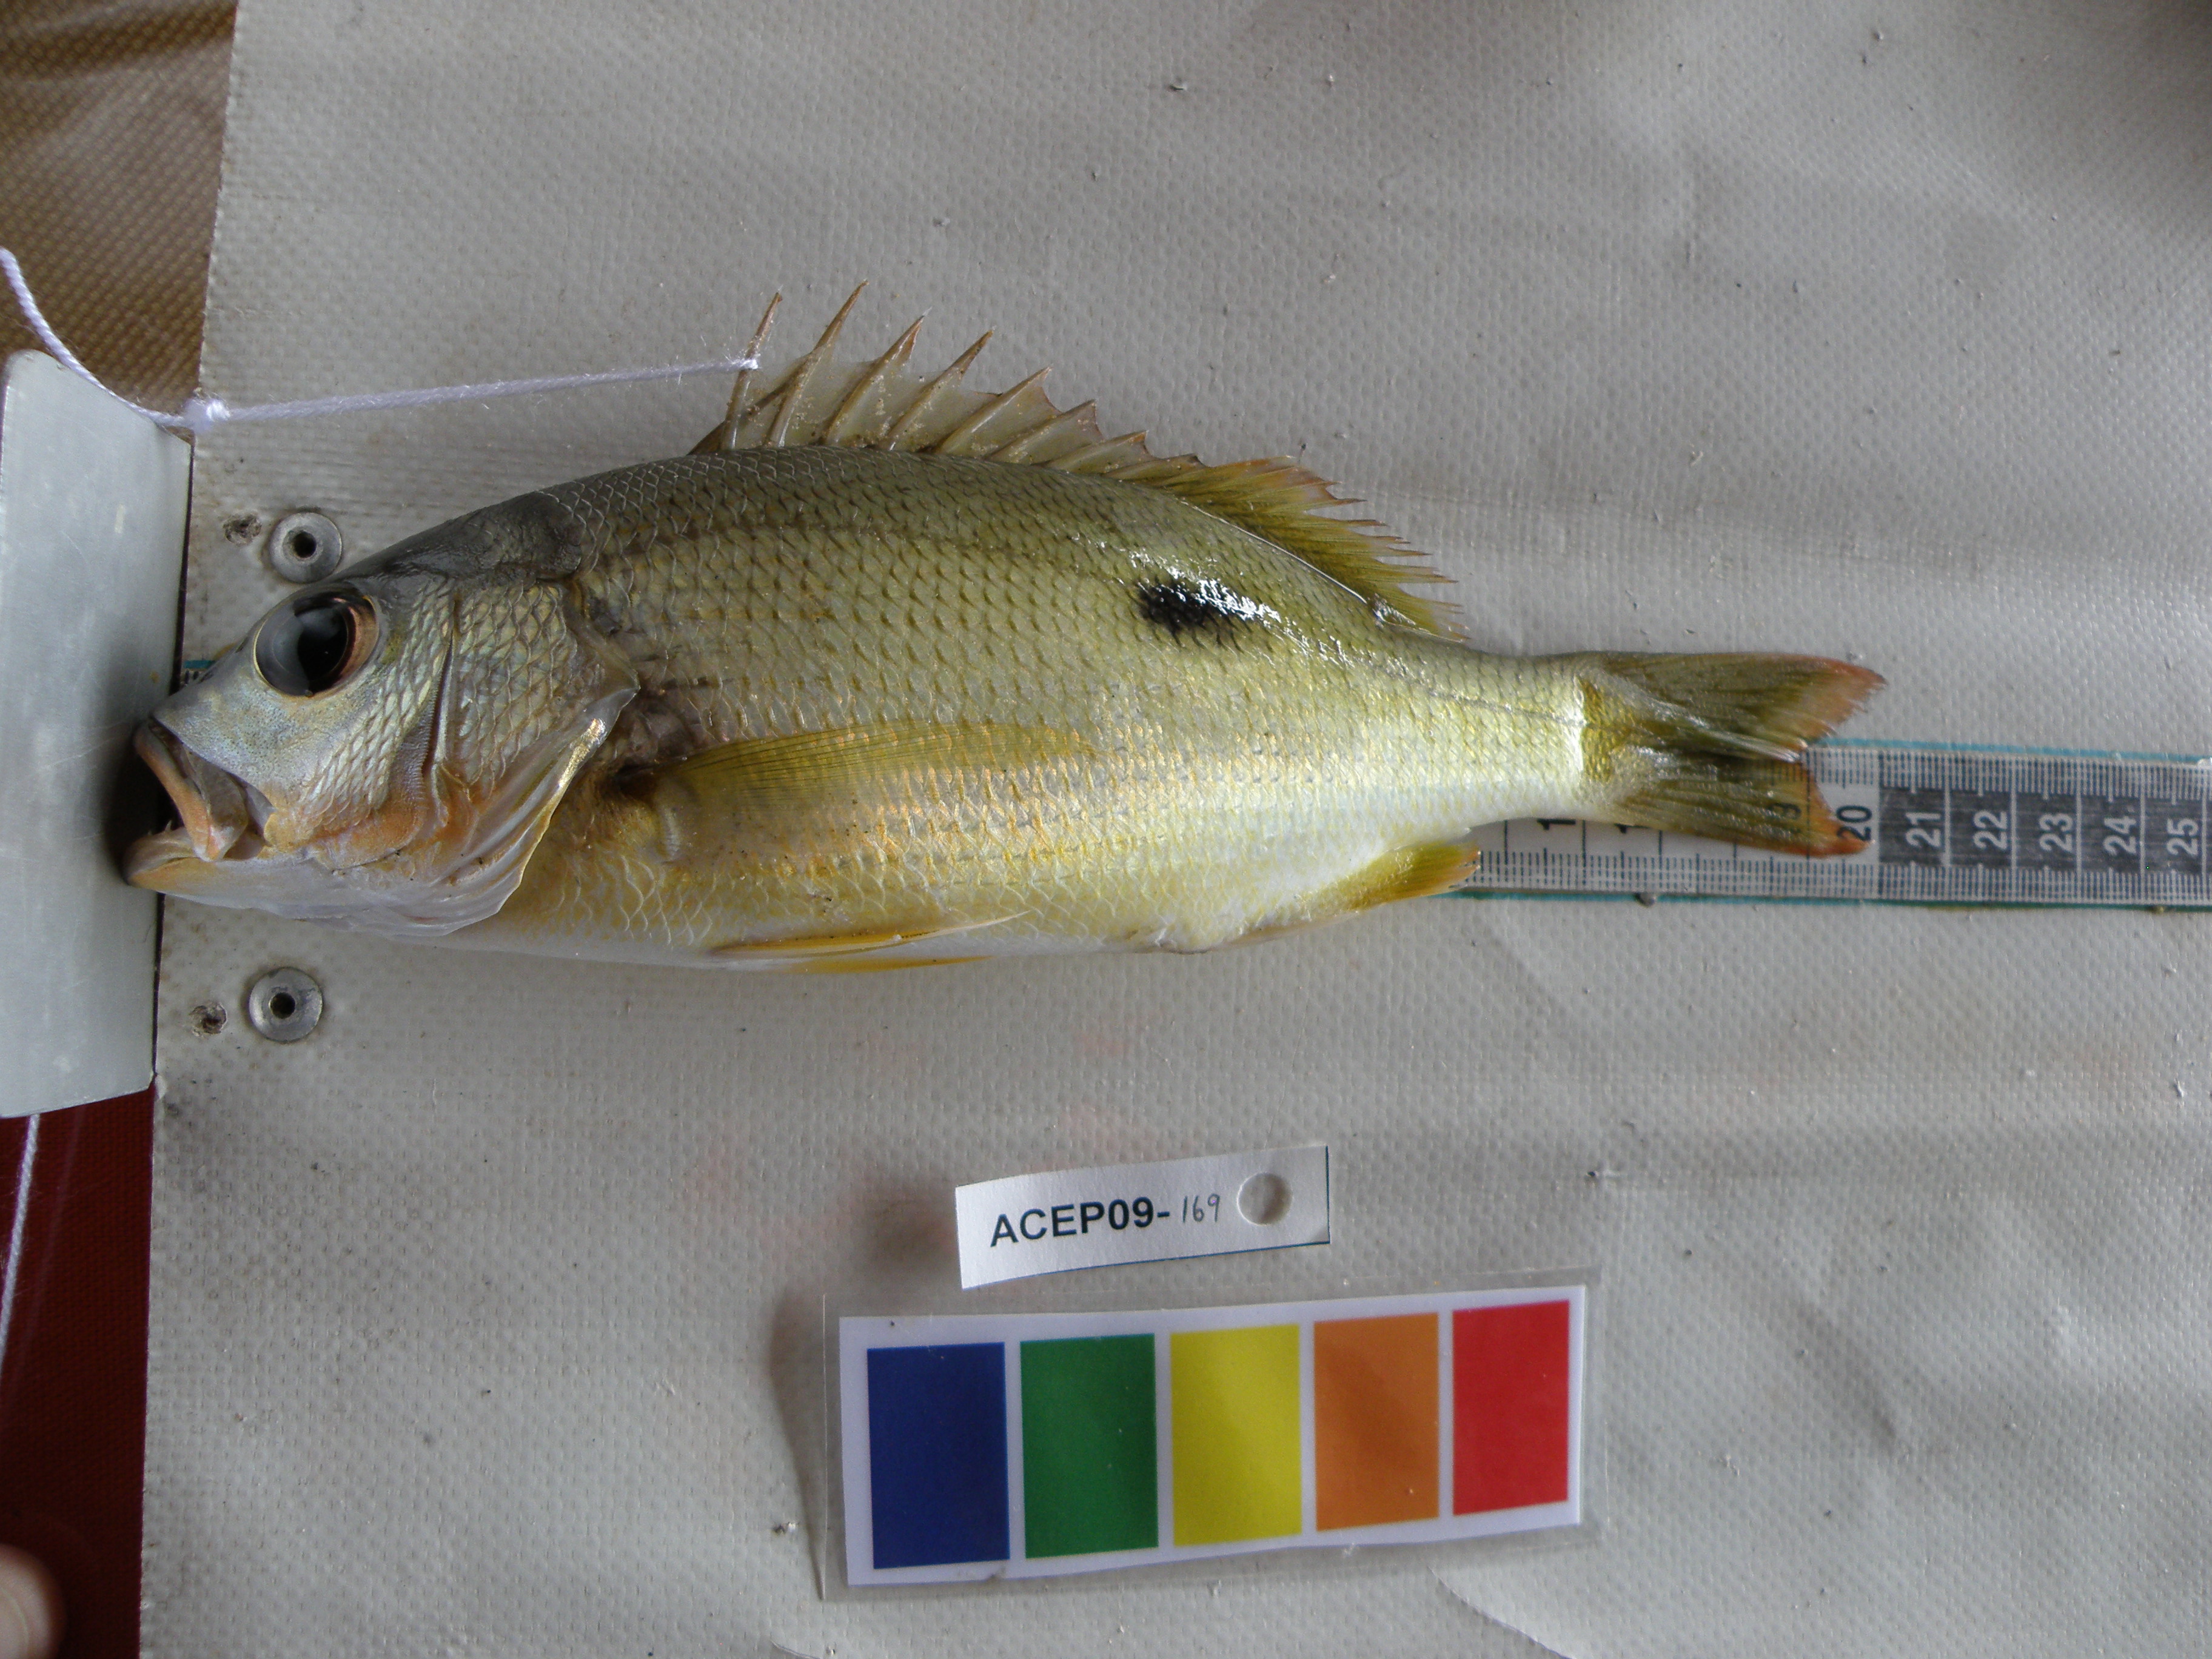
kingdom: Animalia
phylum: Chordata
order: Perciformes
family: Lutjanidae
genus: Lutjanus
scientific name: Lutjanus fulviflamma
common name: Blackspot snapper
